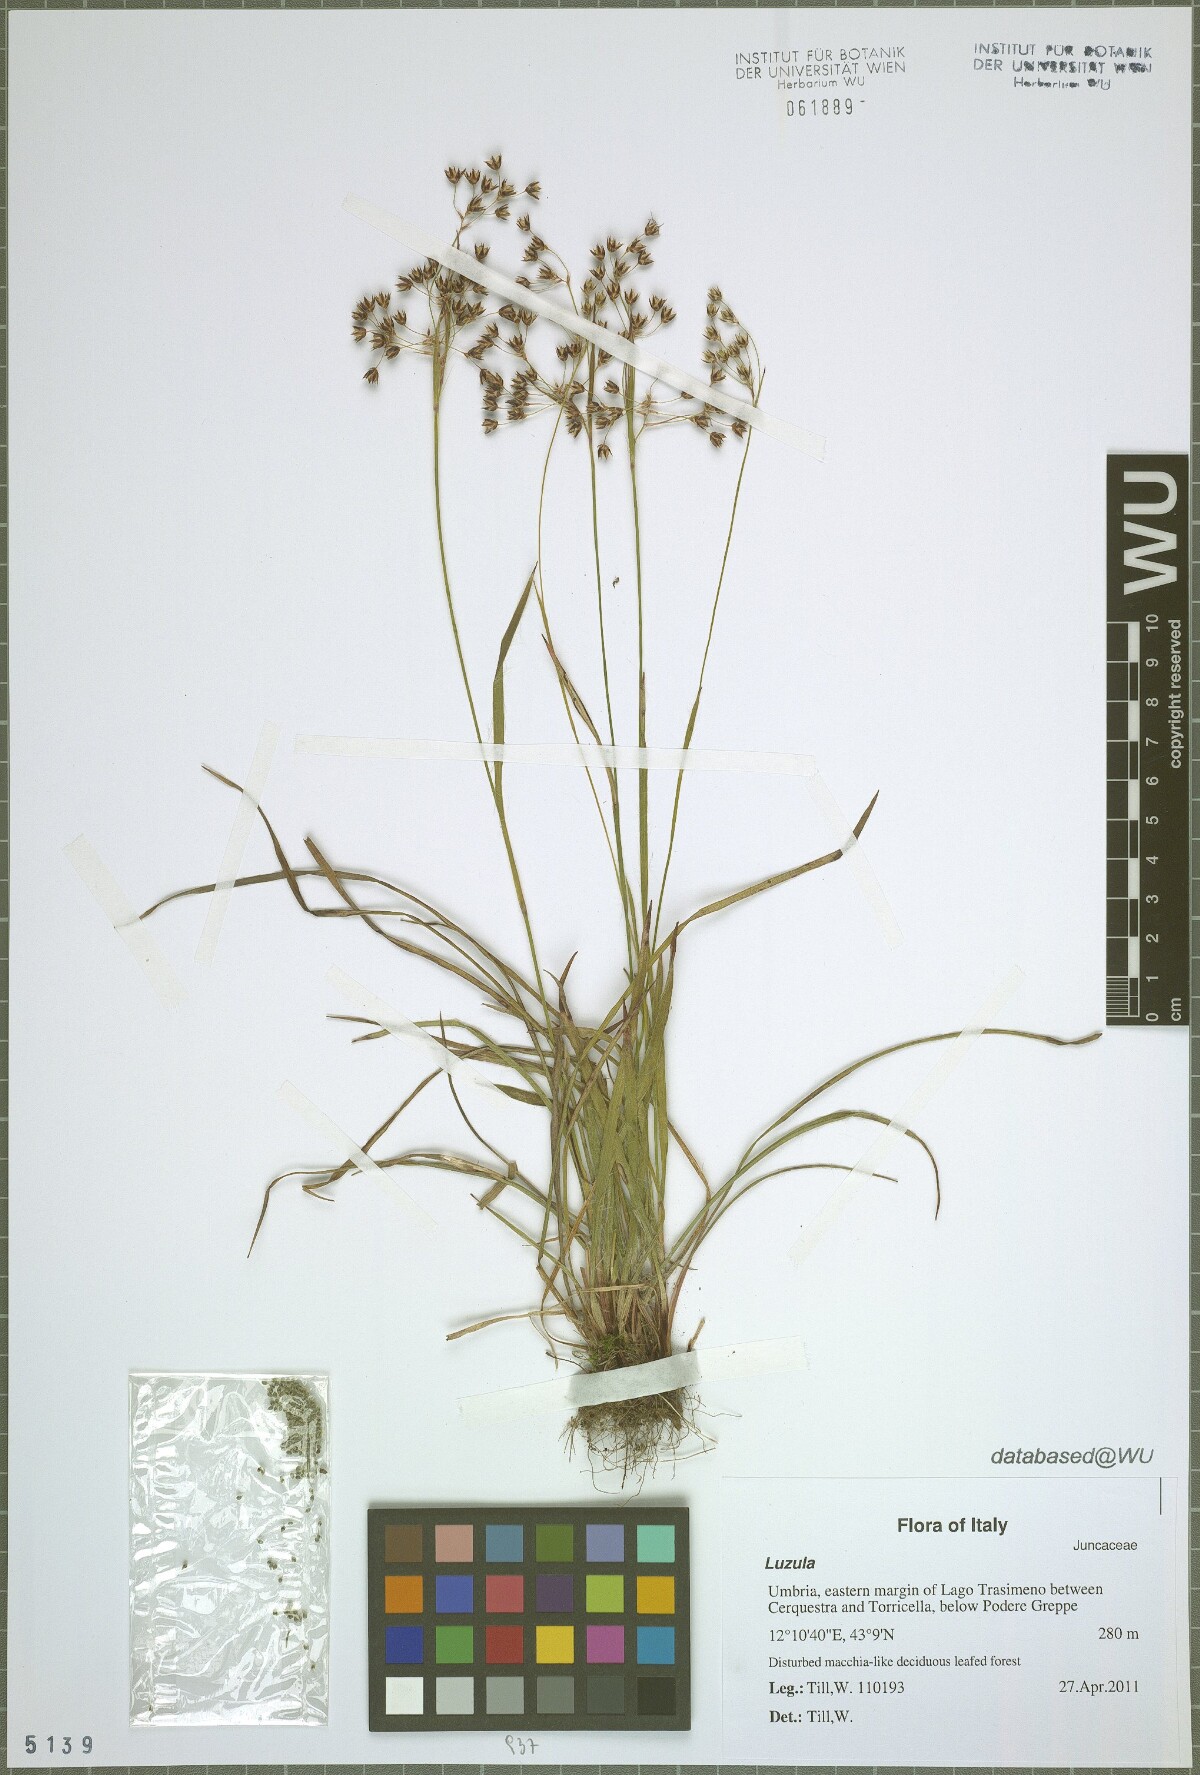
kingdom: Plantae
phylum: Tracheophyta
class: Liliopsida
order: Poales
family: Juncaceae
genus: Luzula
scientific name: Luzula forsteri
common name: Southern wood-rush
